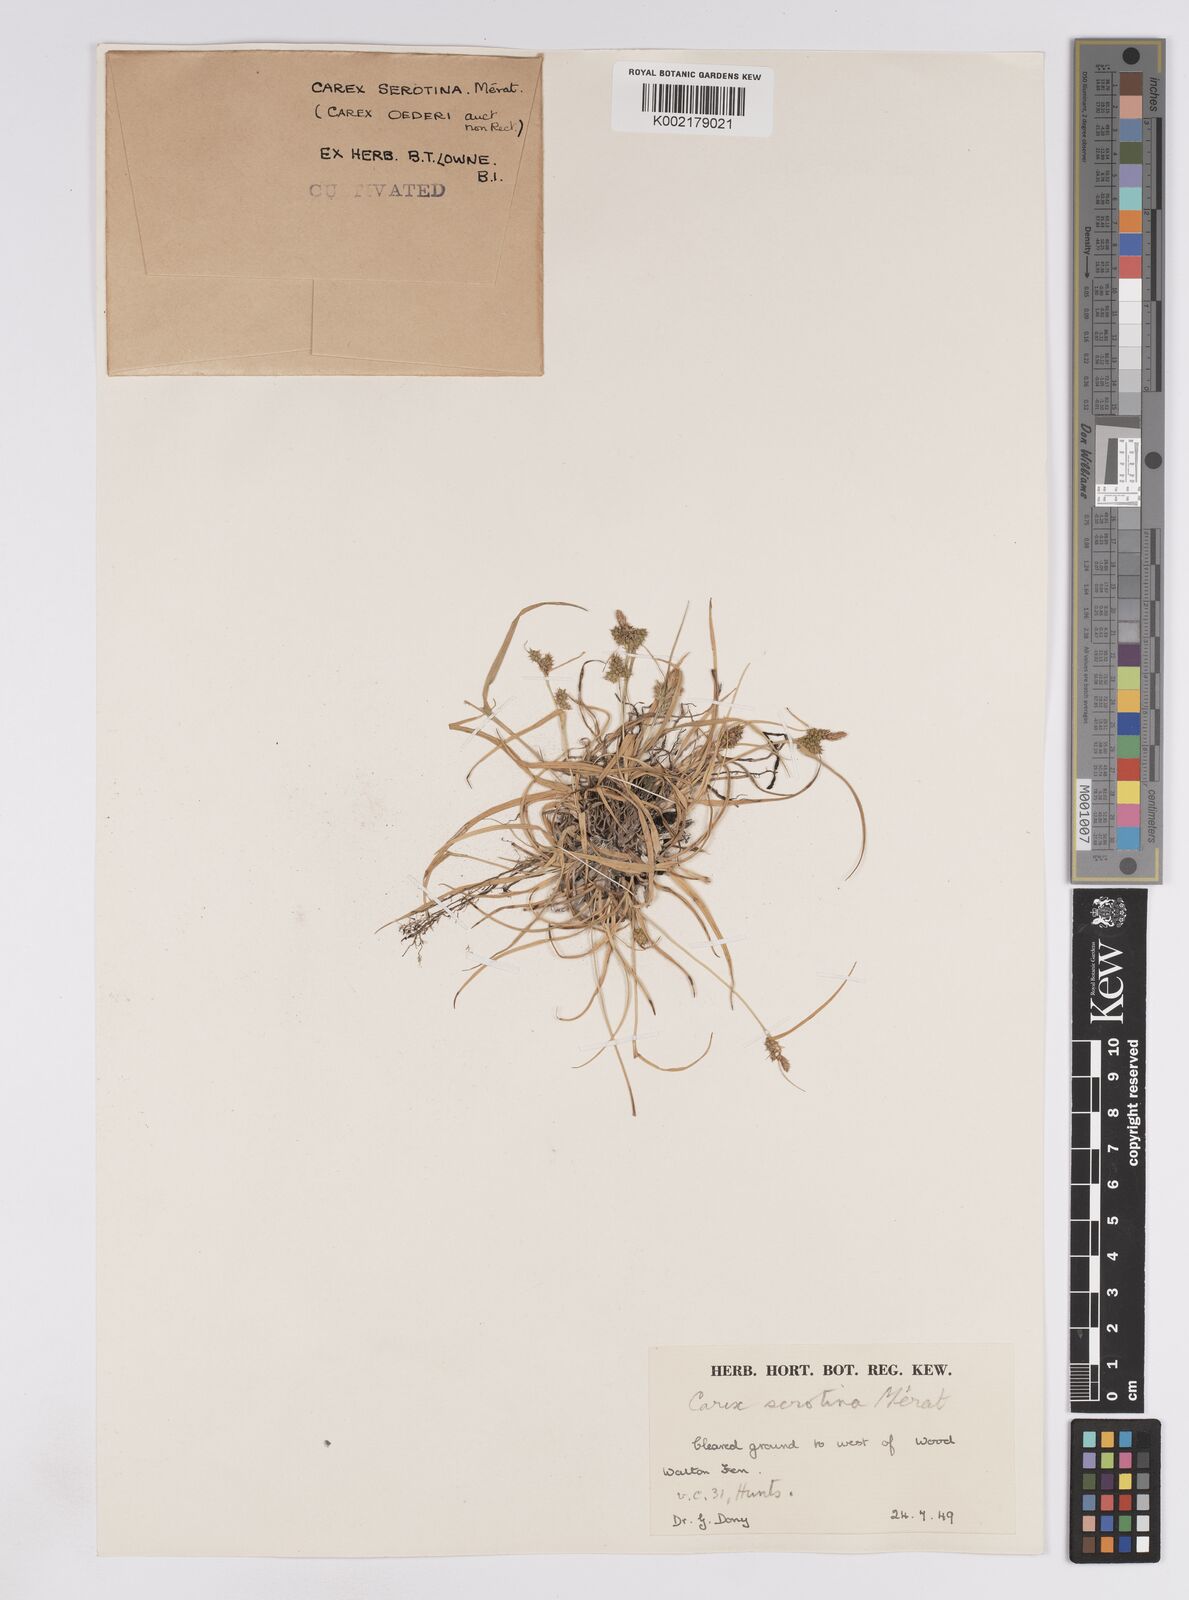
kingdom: Plantae
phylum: Tracheophyta
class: Liliopsida
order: Poales
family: Cyperaceae
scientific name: Cyperaceae
